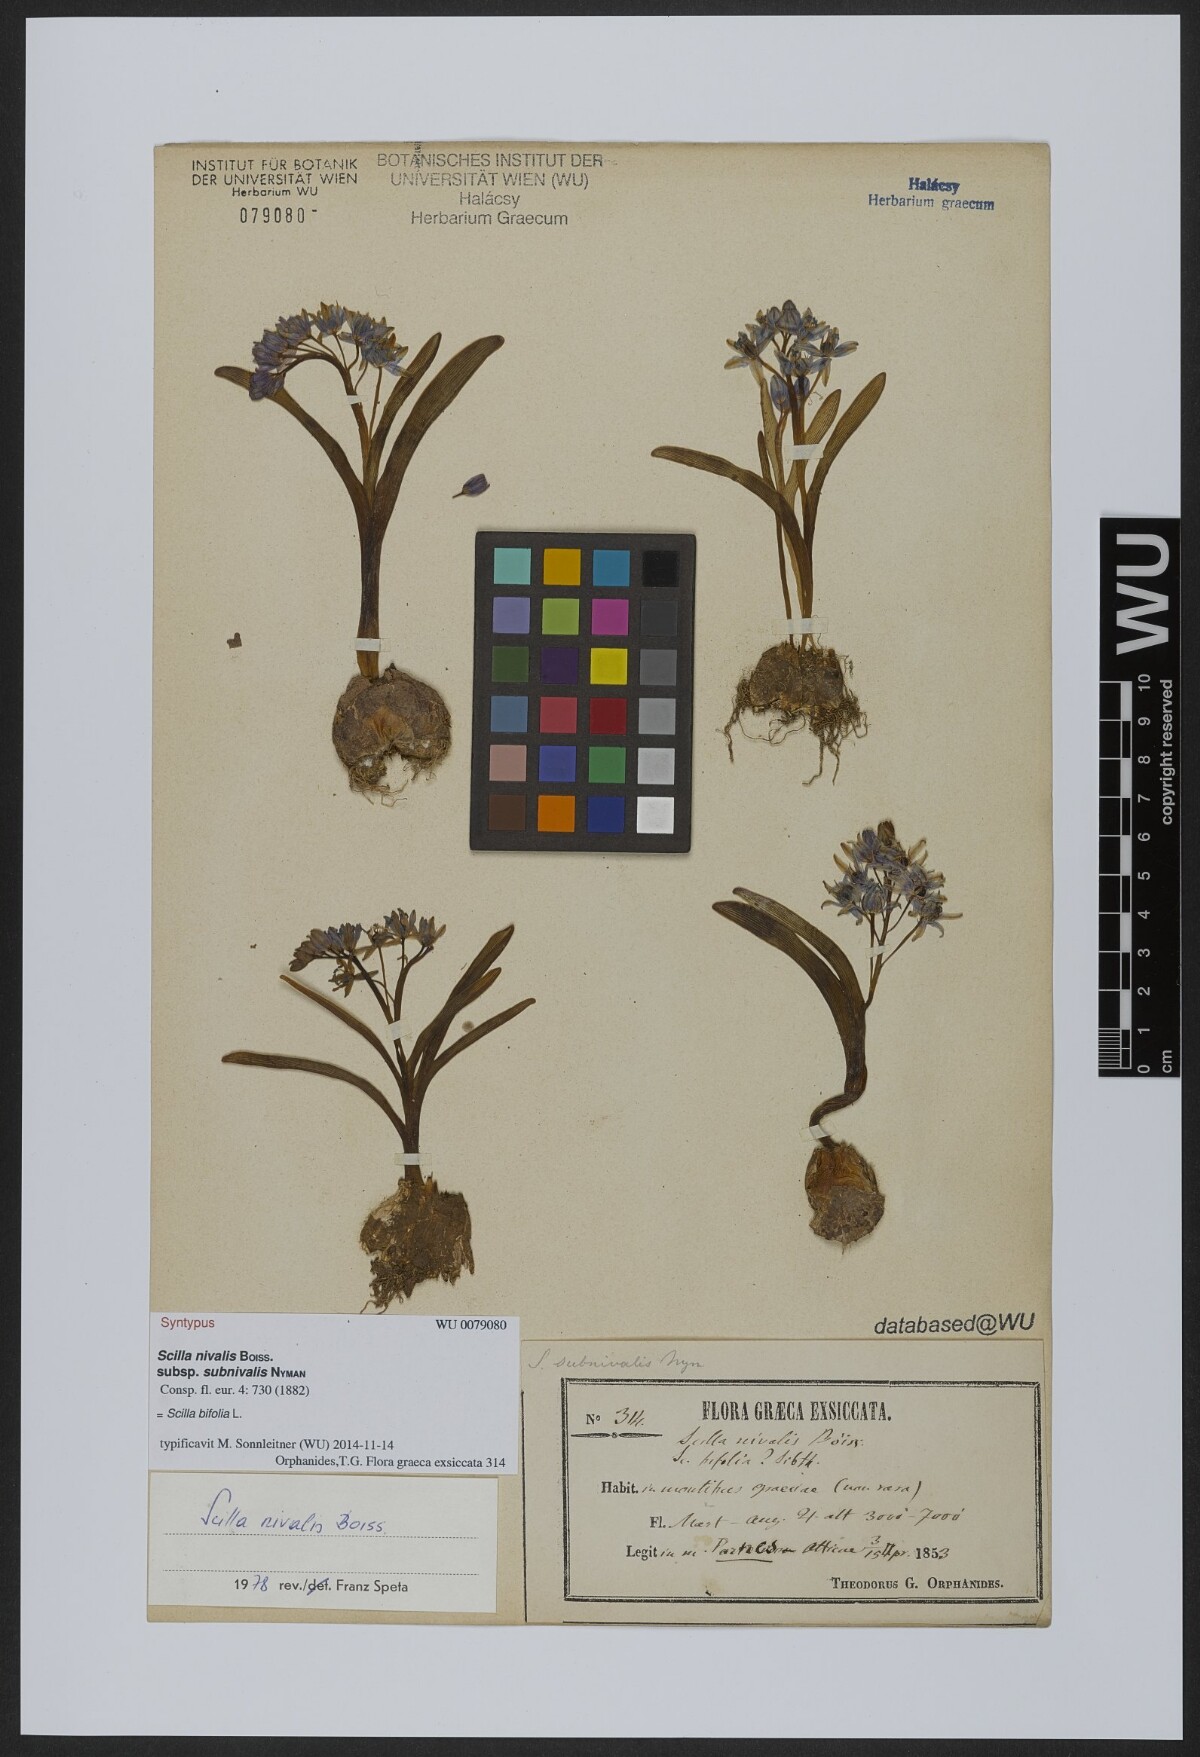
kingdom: Plantae
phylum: Tracheophyta
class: Liliopsida
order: Asparagales
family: Asparagaceae
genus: Scilla
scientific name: Scilla bifolia
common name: Alpine squill
